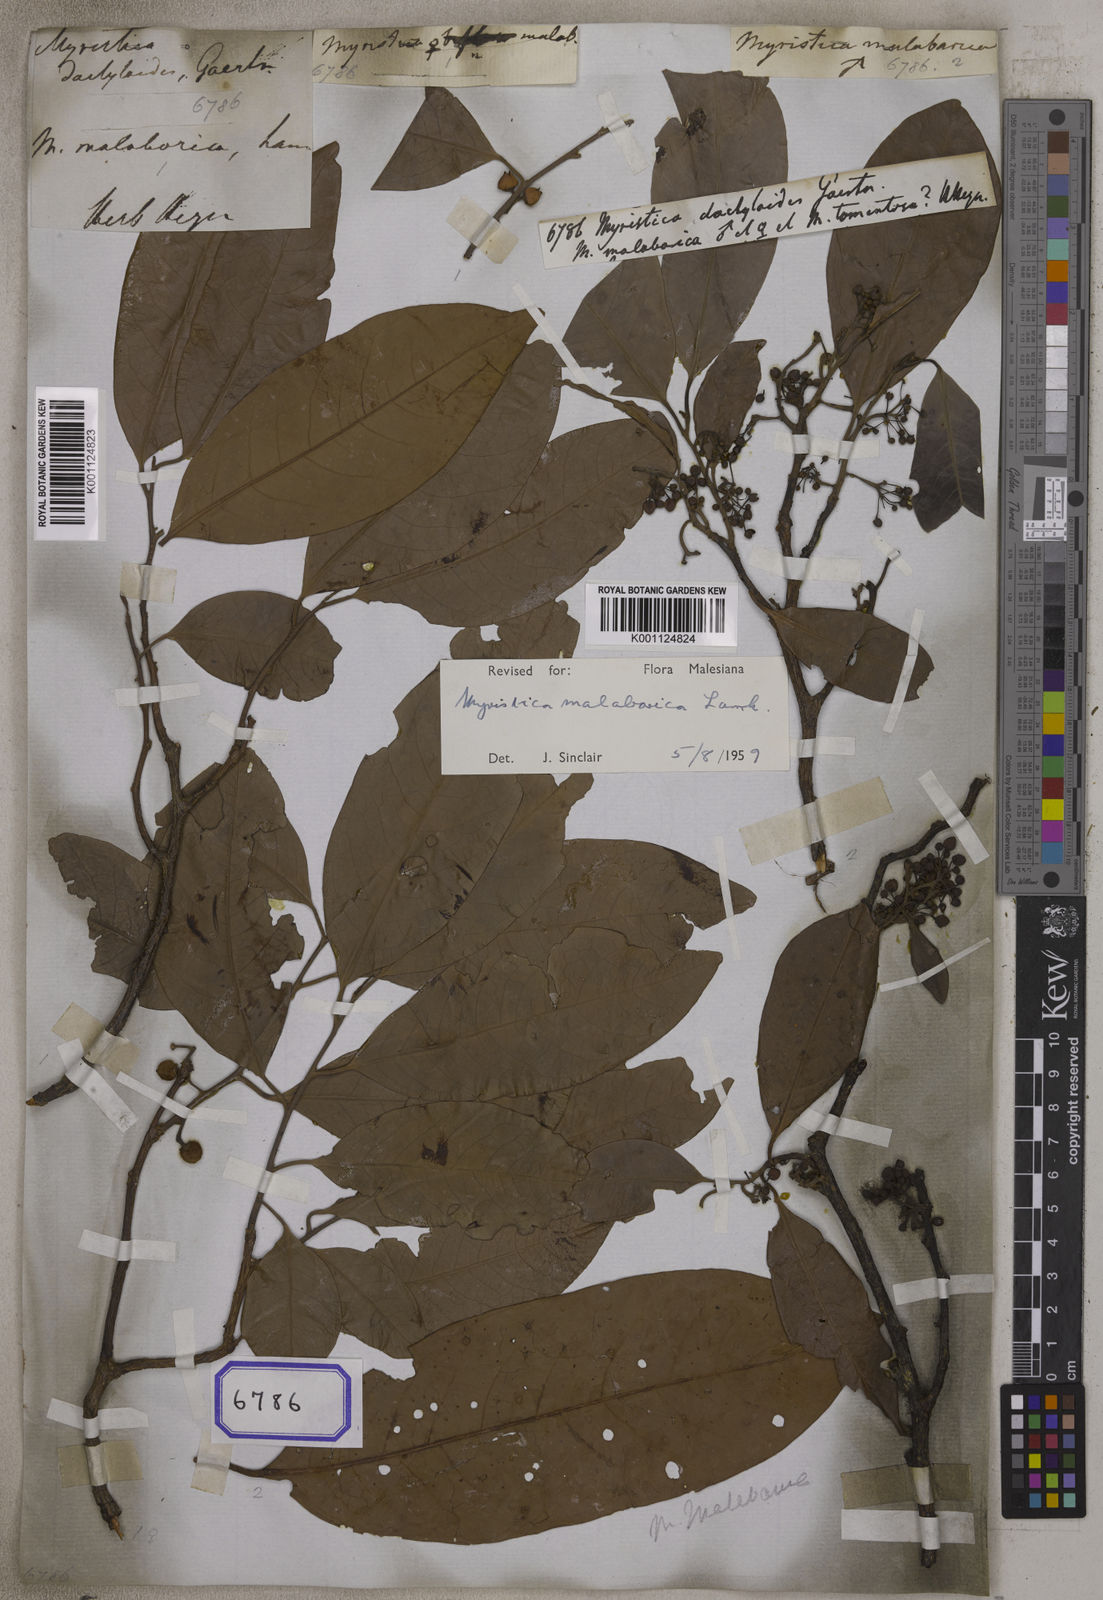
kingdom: Plantae
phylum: Tracheophyta
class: Magnoliopsida
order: Magnoliales
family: Myristicaceae
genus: Myristica
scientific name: Myristica malabarica
